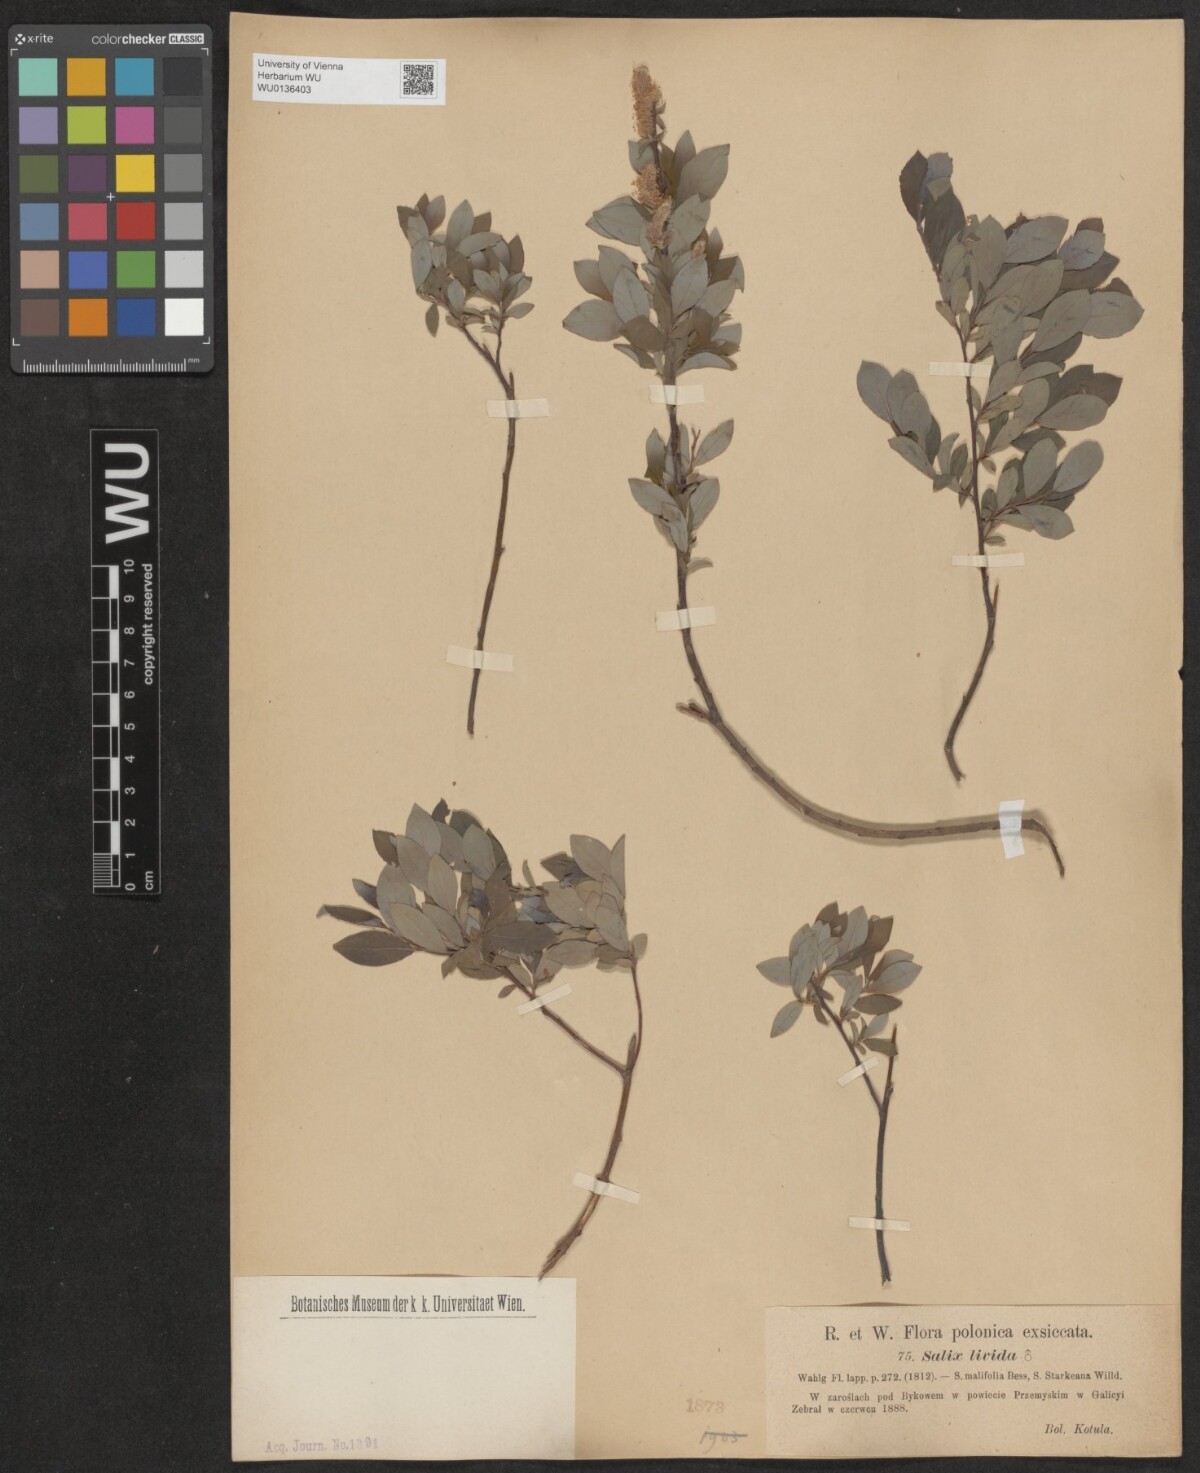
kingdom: Plantae
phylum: Tracheophyta
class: Magnoliopsida
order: Malpighiales
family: Salicaceae
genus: Salix
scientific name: Salix lanata
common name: Woolly willow
